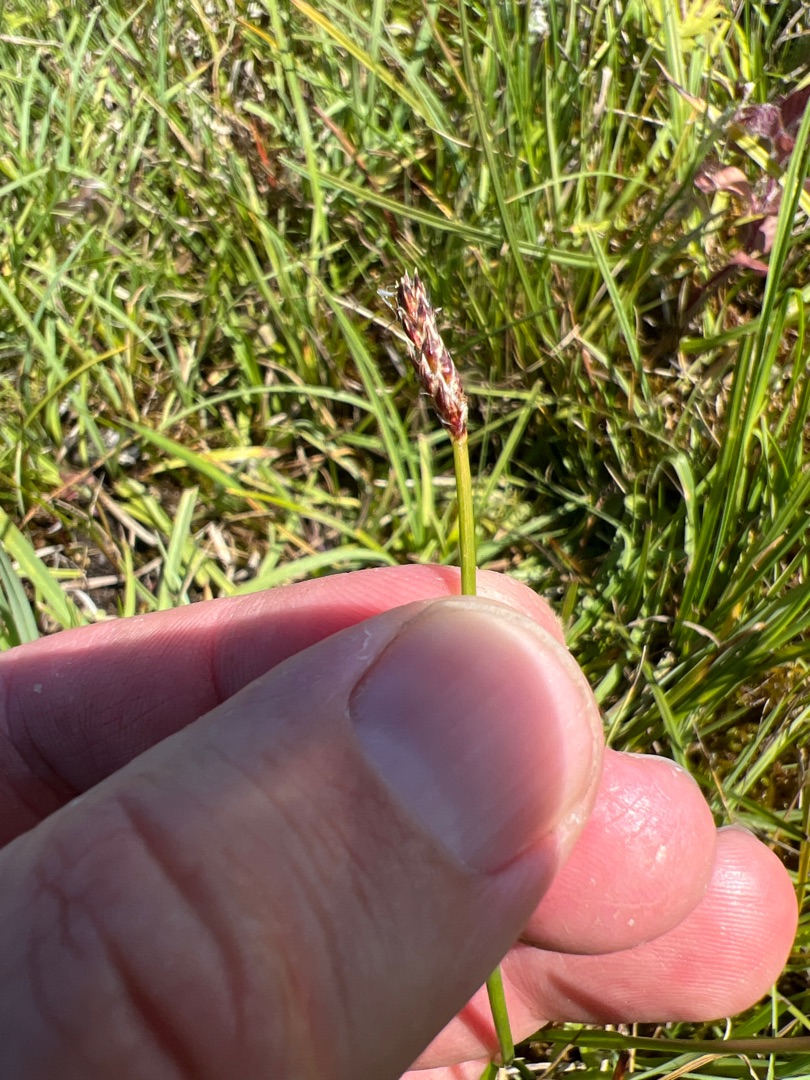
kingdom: Plantae
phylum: Tracheophyta
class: Liliopsida
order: Poales
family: Cyperaceae
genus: Eleocharis
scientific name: Eleocharis palustris
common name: Almindelig sumpstrå
